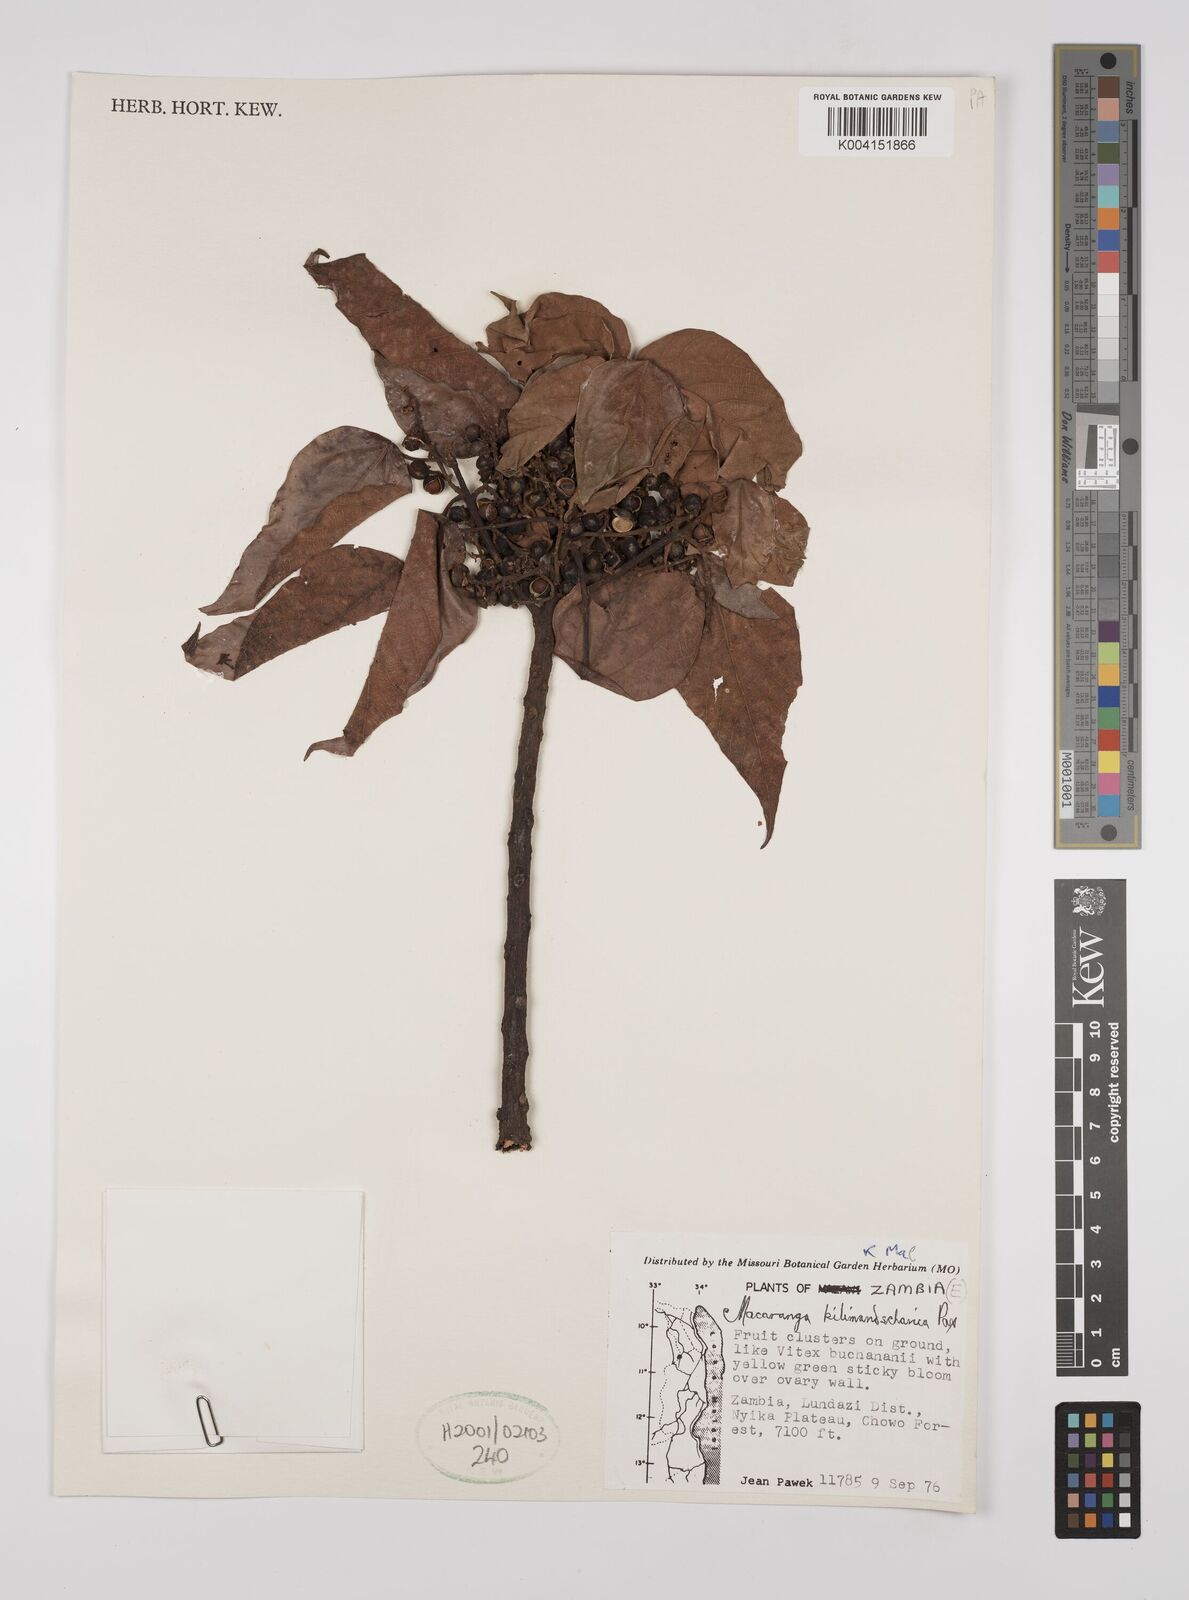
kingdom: Plantae
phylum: Tracheophyta
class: Magnoliopsida
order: Malpighiales
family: Euphorbiaceae
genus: Macaranga
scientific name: Macaranga kilimandscharica
